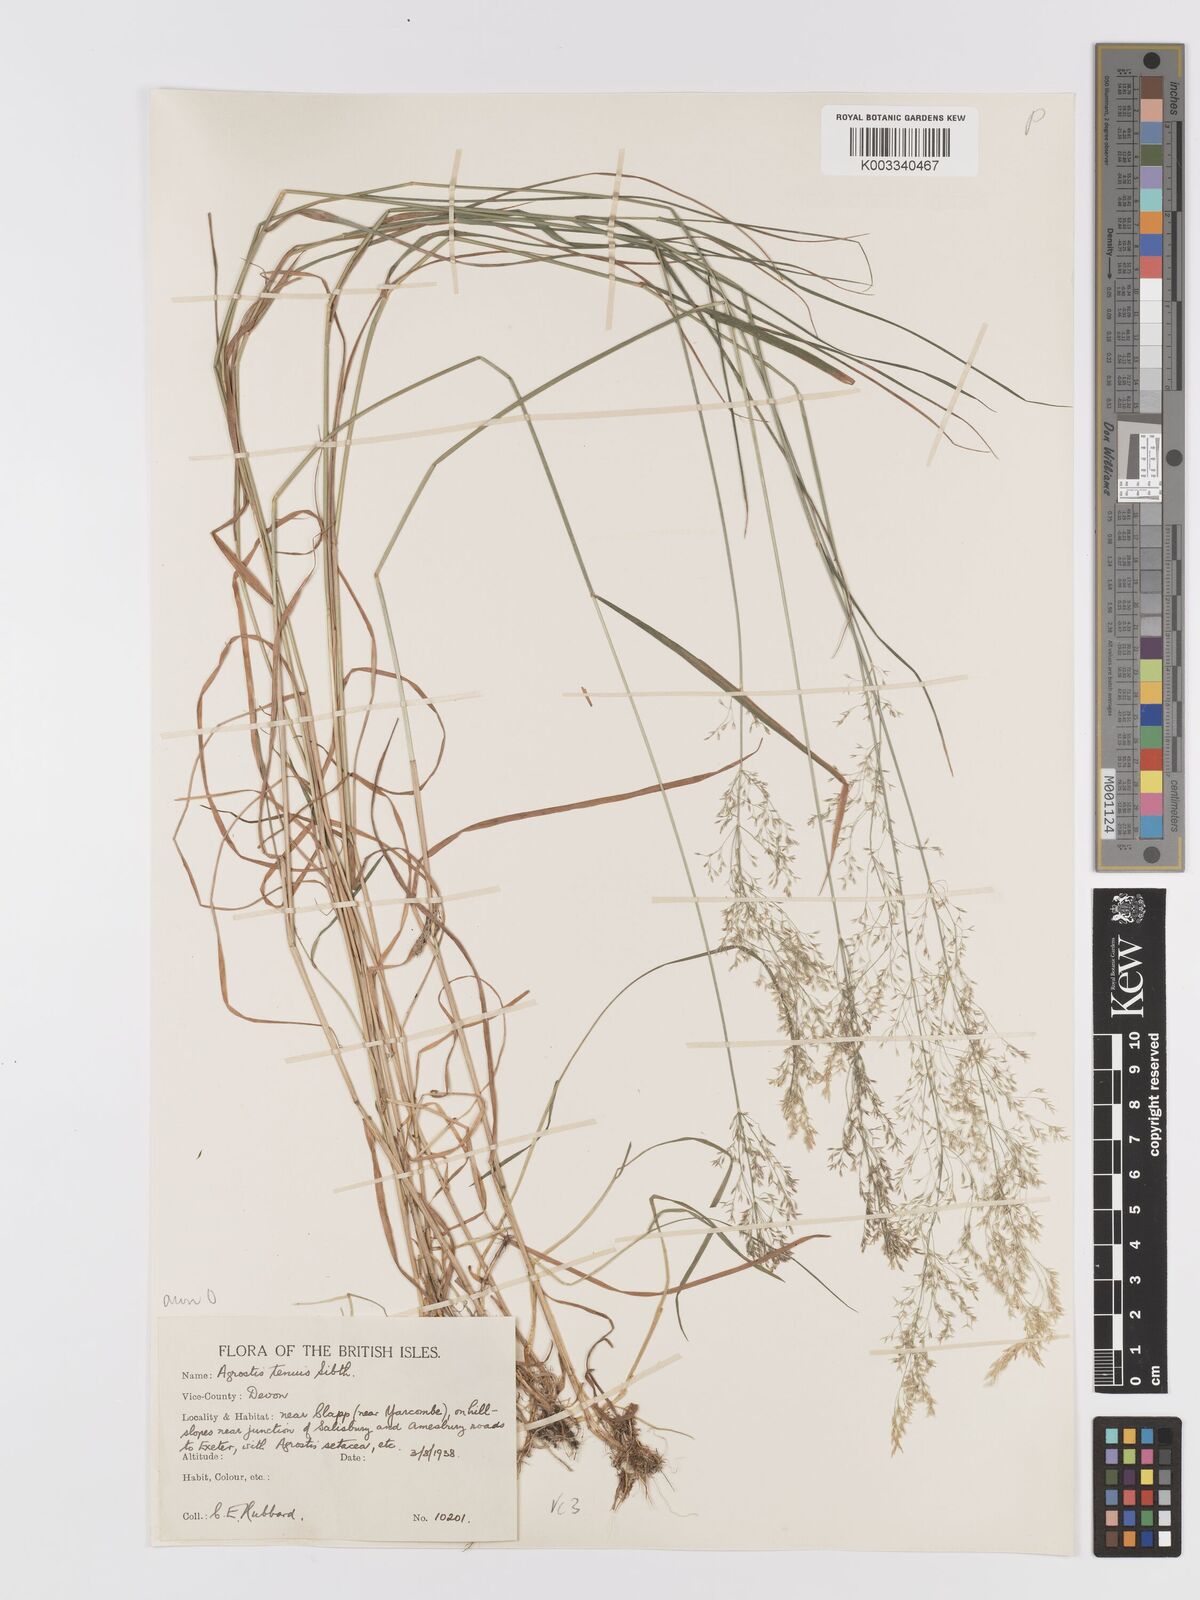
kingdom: Plantae
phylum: Tracheophyta
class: Liliopsida
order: Poales
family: Poaceae
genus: Agrostis
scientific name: Agrostis capillaris
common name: Colonial bentgrass
